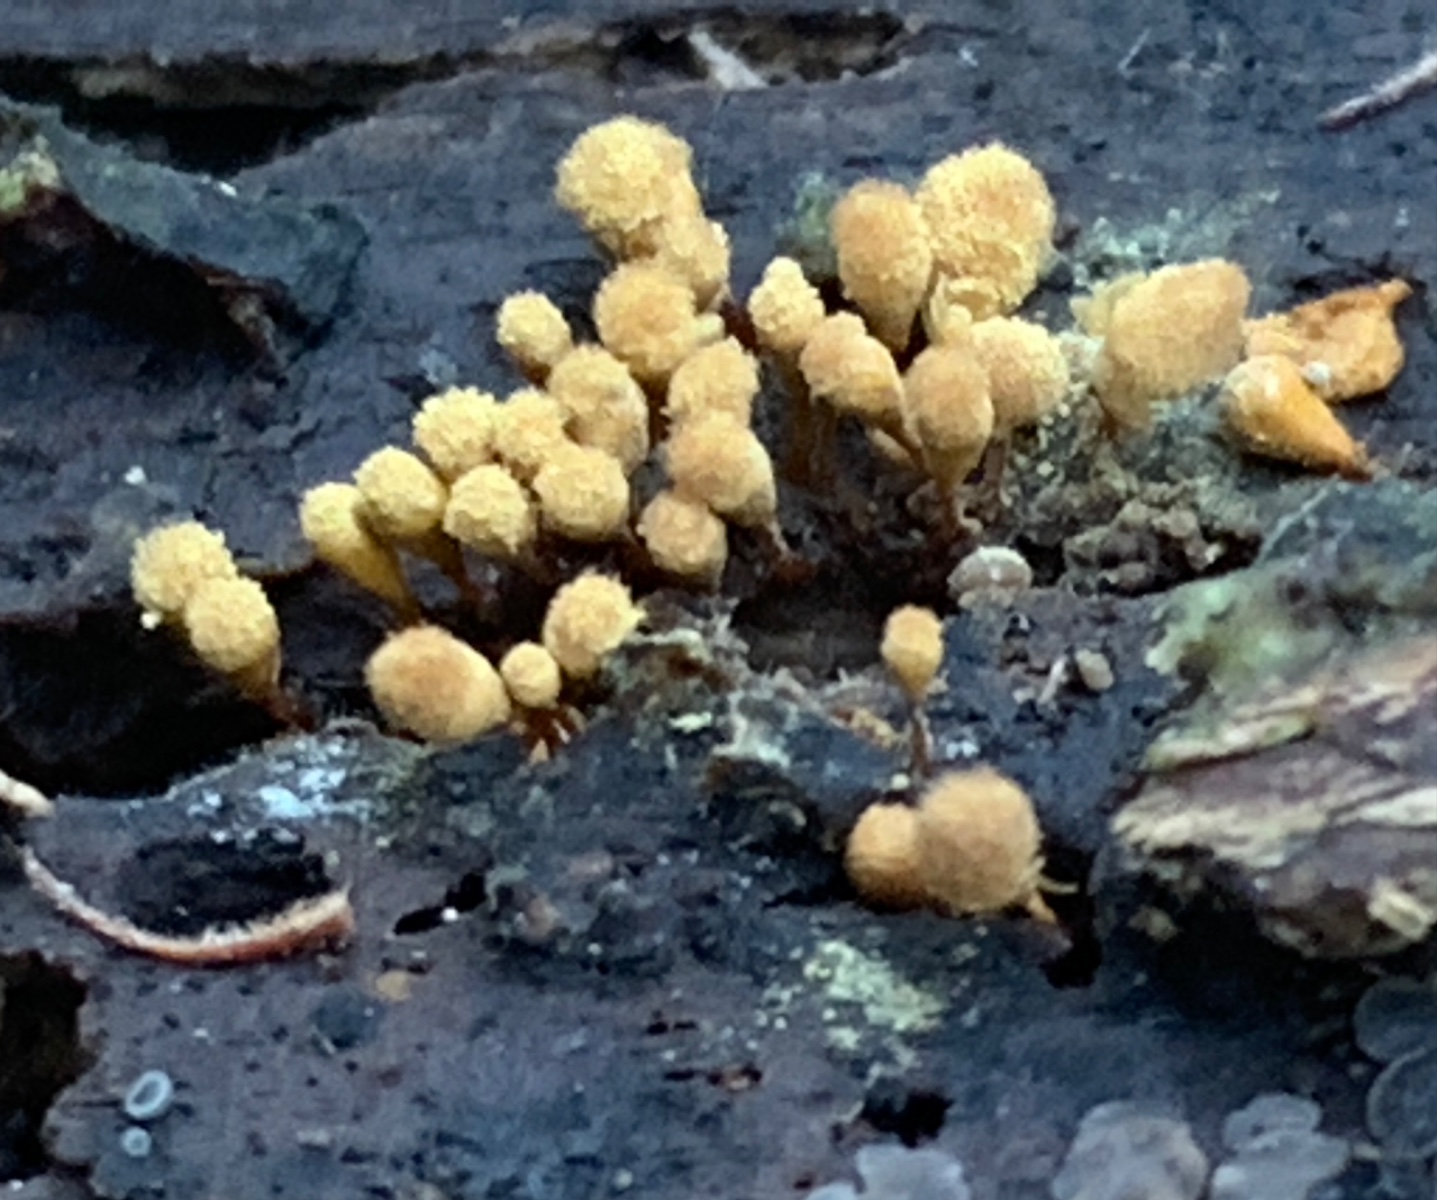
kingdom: Protozoa
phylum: Mycetozoa
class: Myxomycetes
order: Trichiales
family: Arcyriaceae
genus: Hemitrichia
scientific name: Hemitrichia clavata
